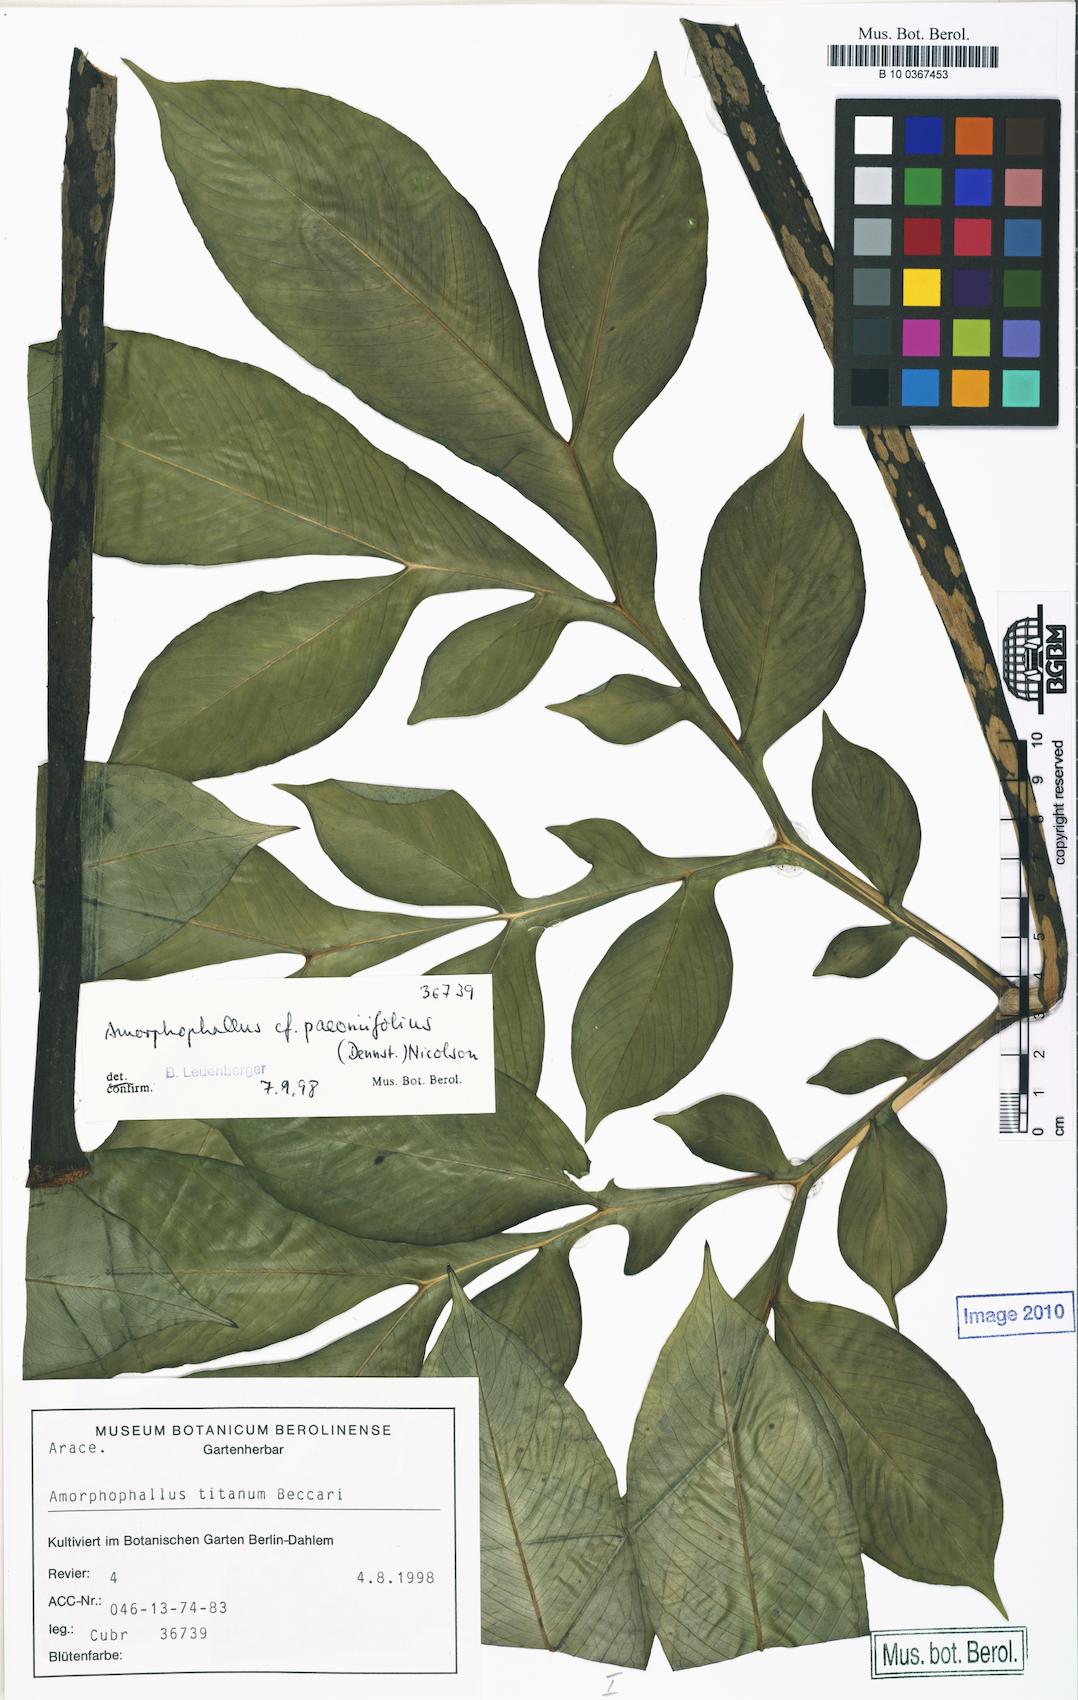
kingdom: Plantae
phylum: Tracheophyta
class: Liliopsida
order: Alismatales
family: Araceae
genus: Amorphophallus
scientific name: Amorphophallus paeoniifolius
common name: Telinga-potato
